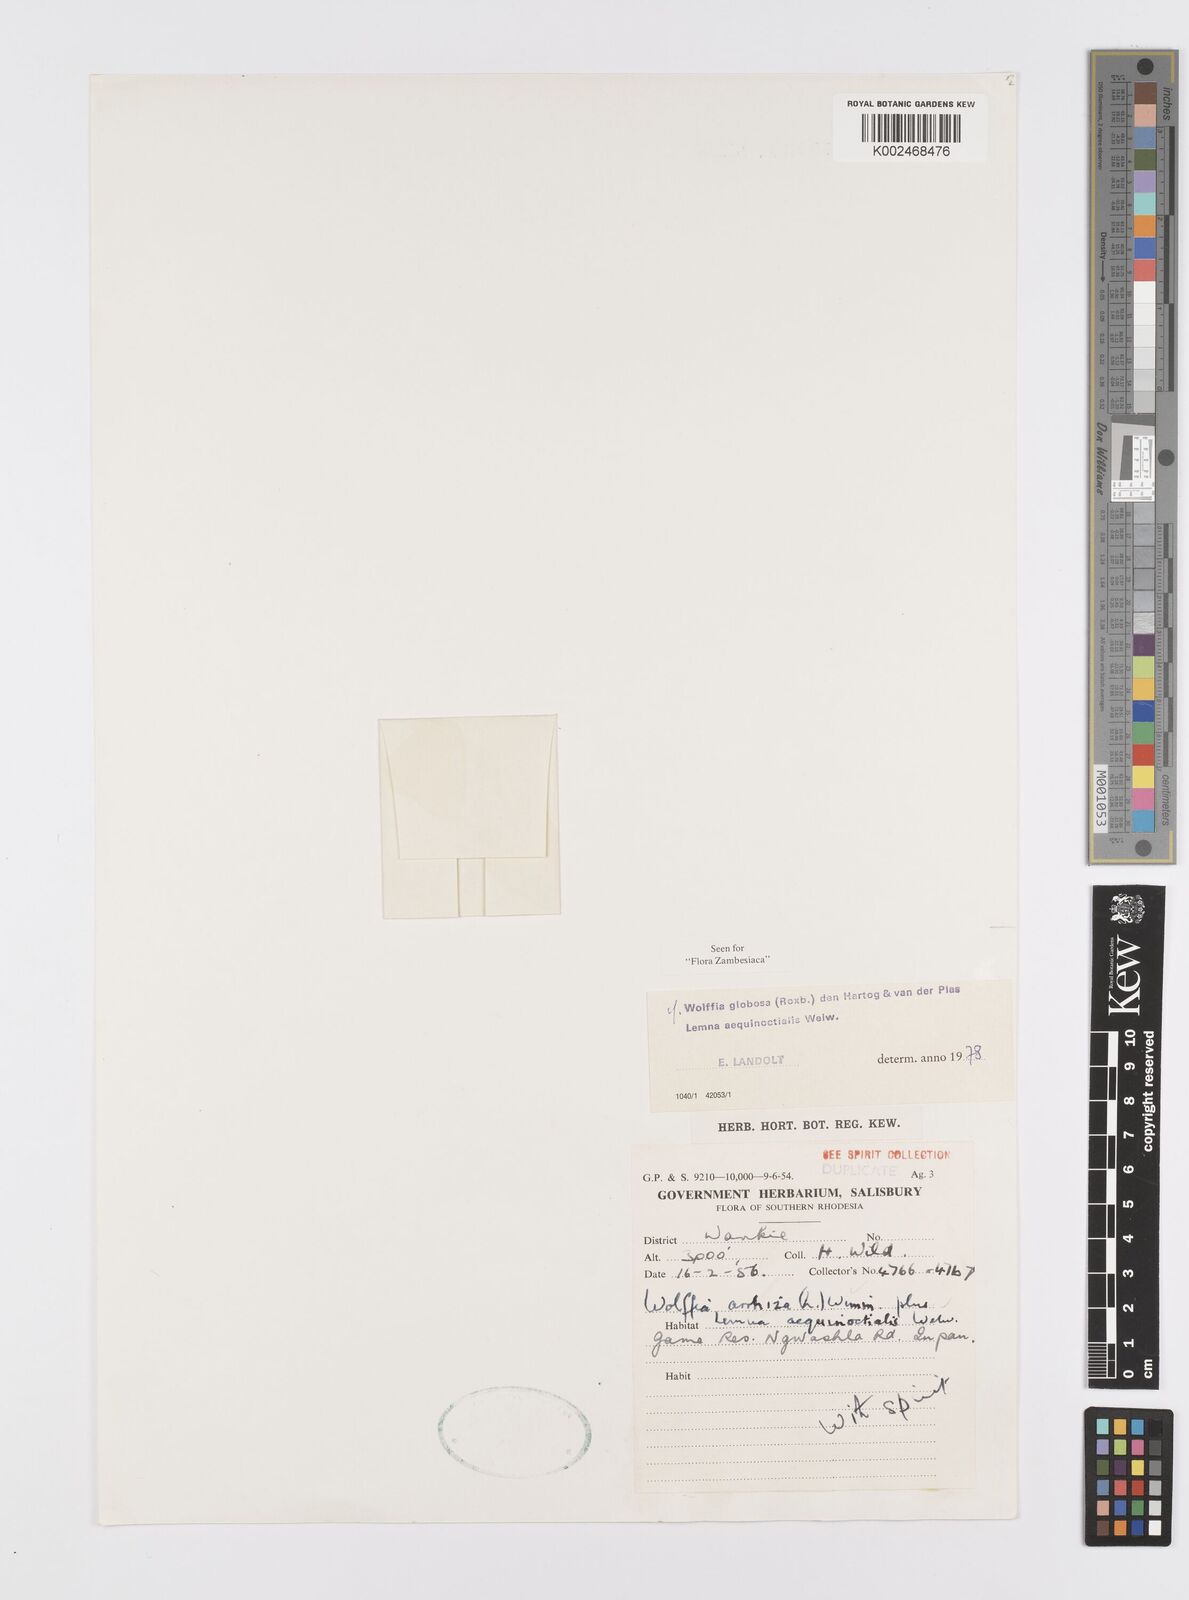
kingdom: Plantae
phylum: Tracheophyta
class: Liliopsida
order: Alismatales
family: Araceae
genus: Wolffia
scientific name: Wolffia globosa
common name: Asian watermeal
